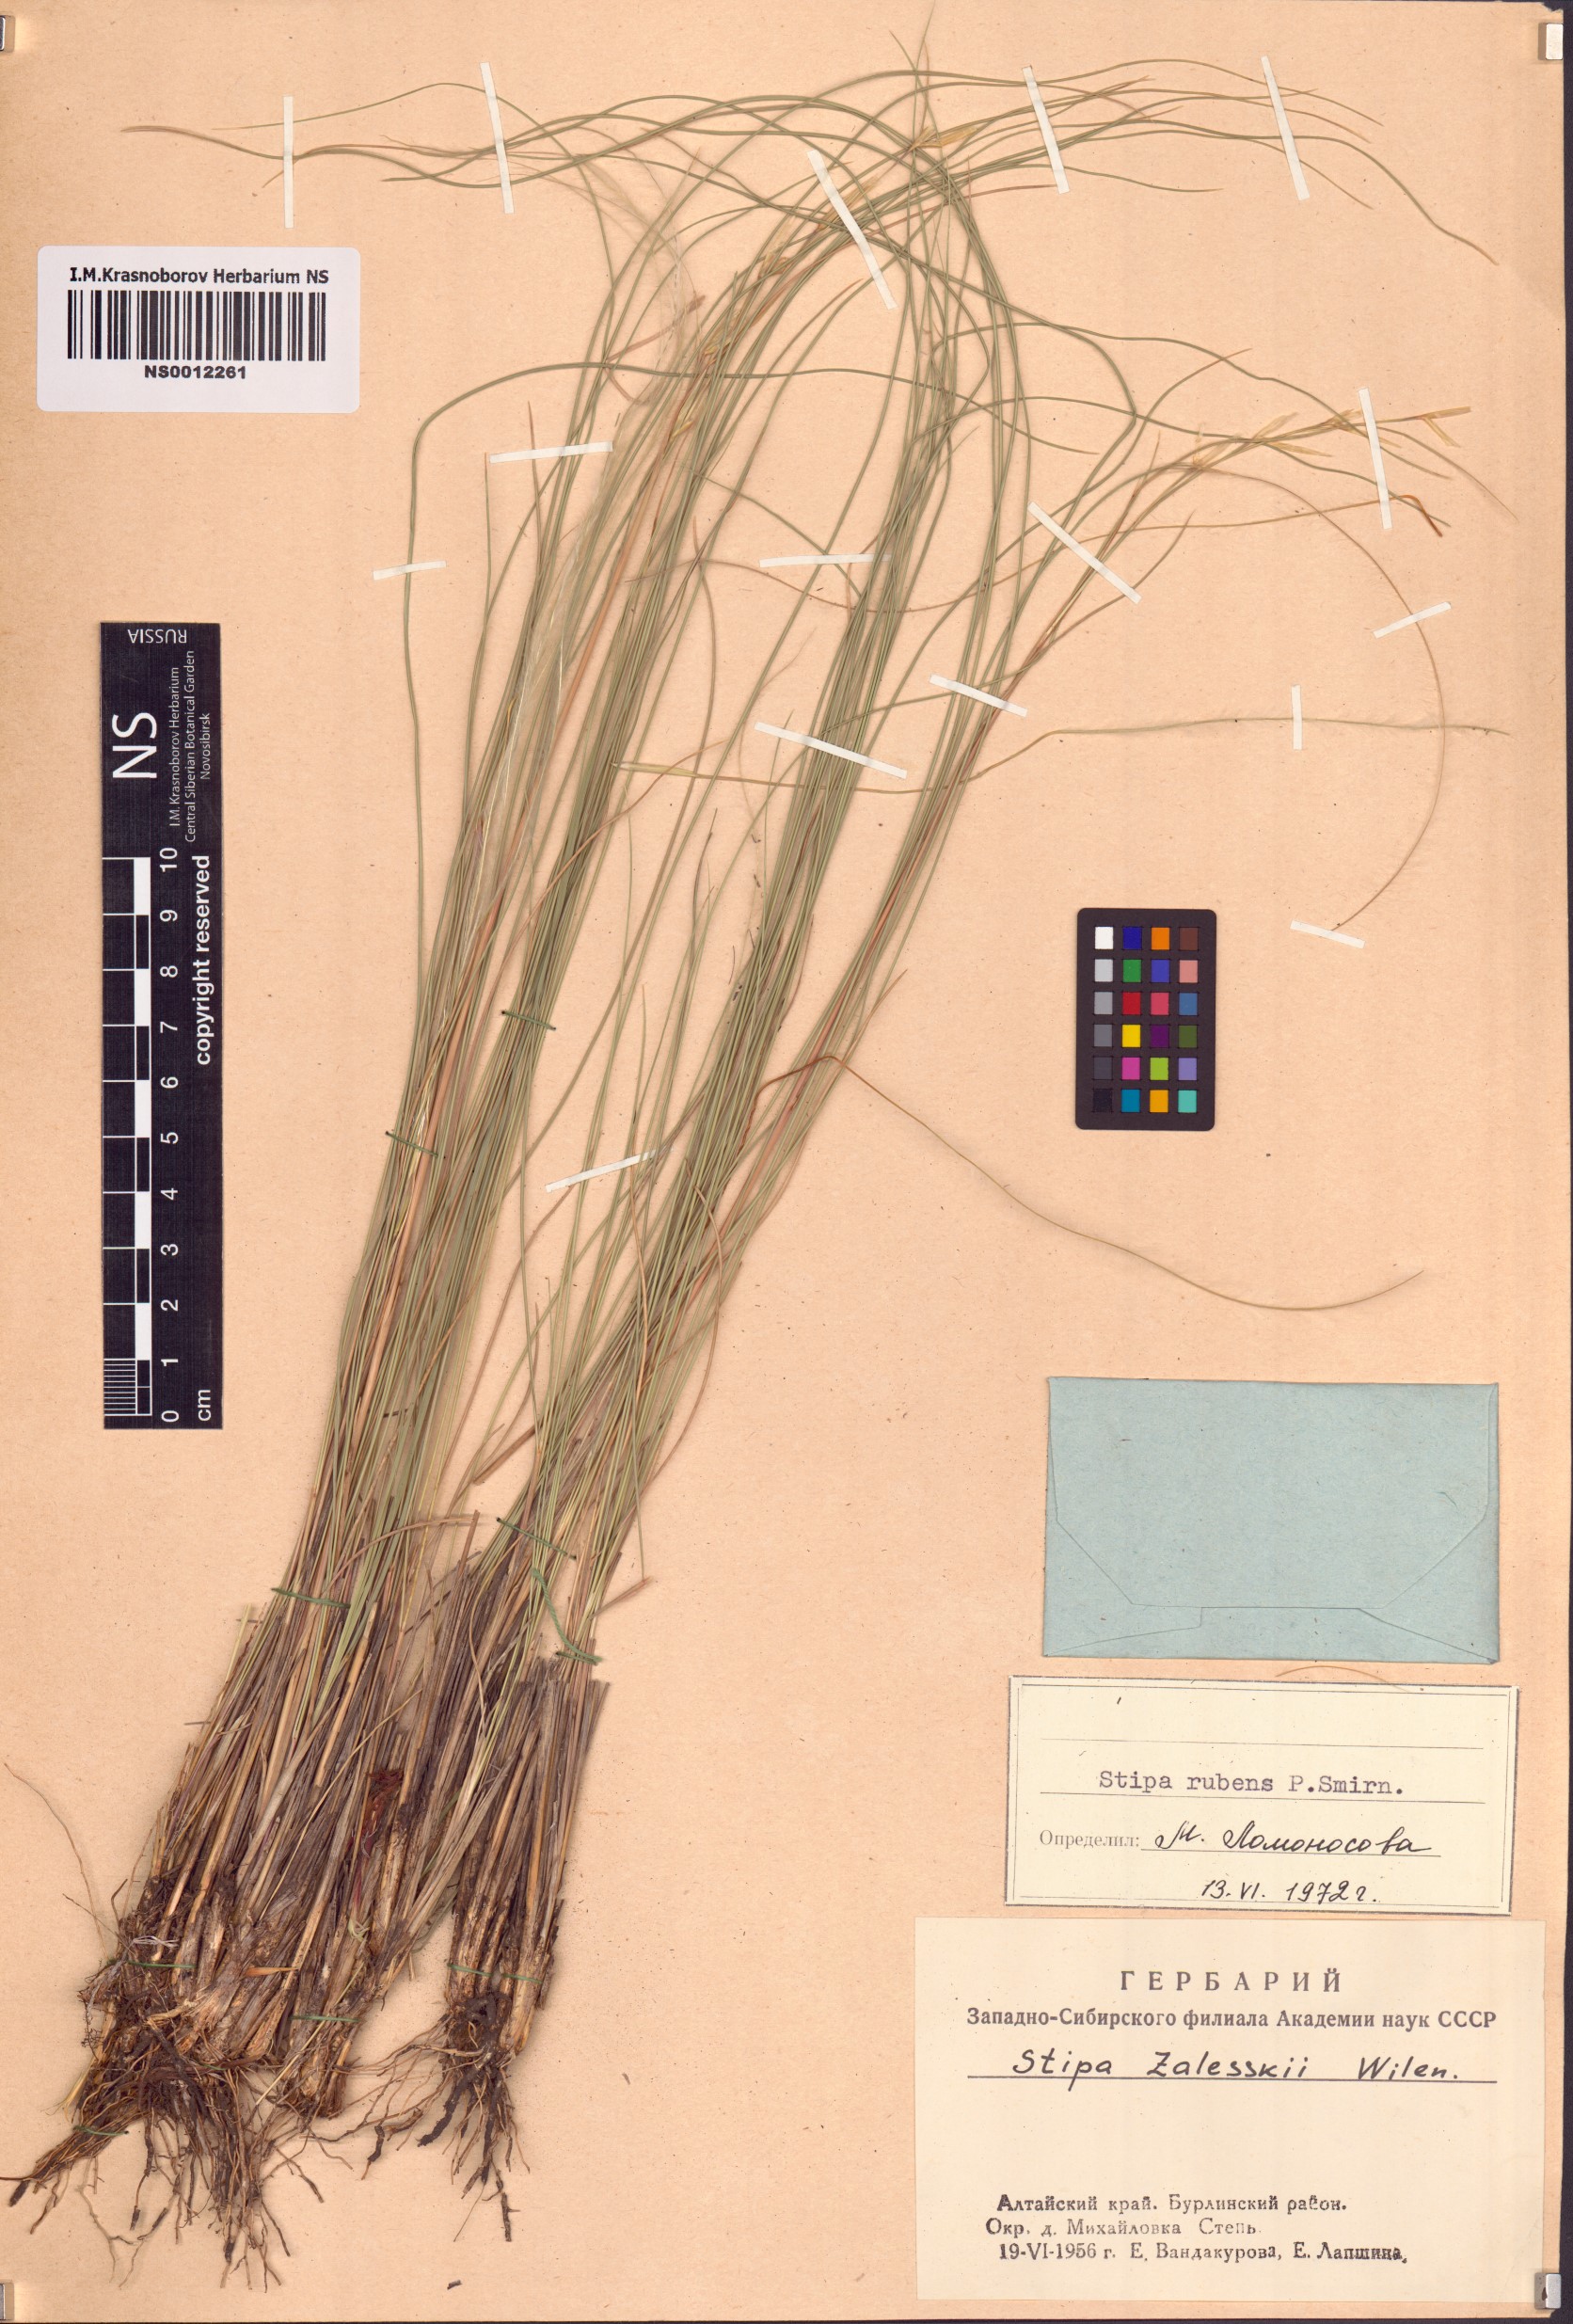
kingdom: Plantae
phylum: Tracheophyta
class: Liliopsida
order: Poales
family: Poaceae
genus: Stipa
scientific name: Stipa zalesskyi
